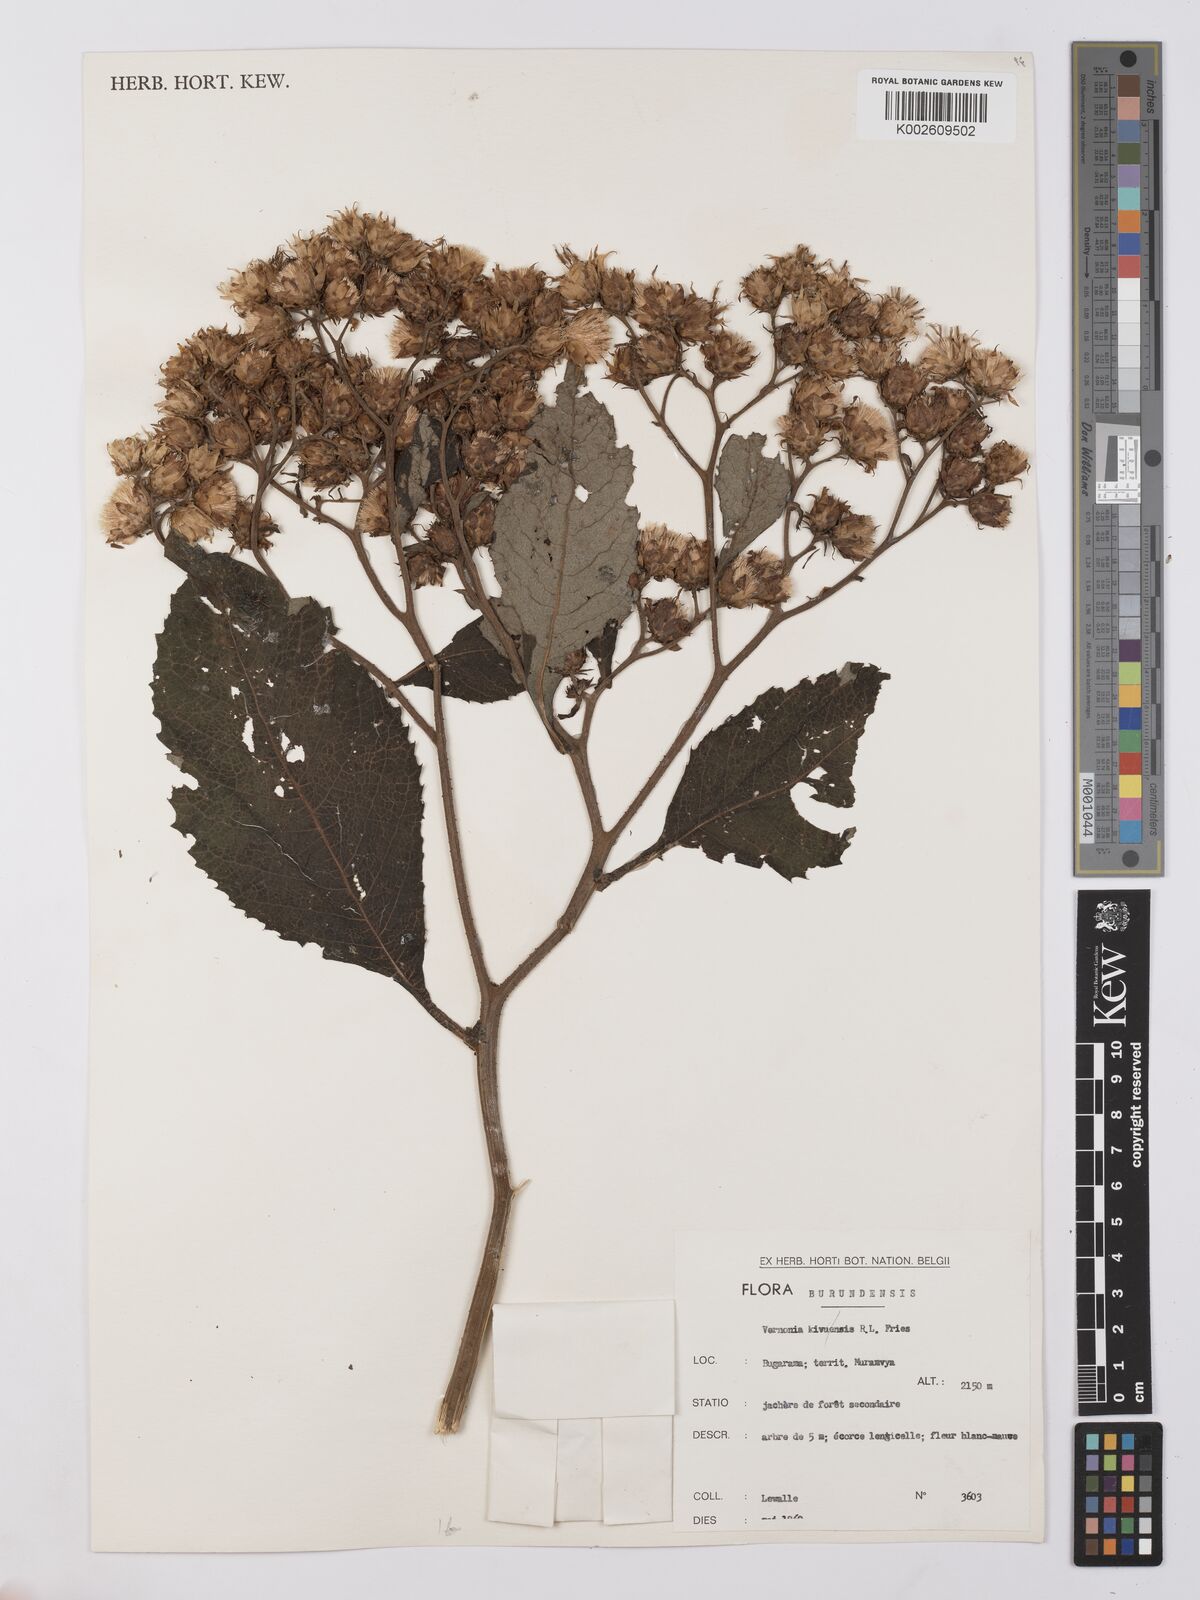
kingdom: Plantae
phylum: Tracheophyta
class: Magnoliopsida
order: Asterales
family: Asteraceae
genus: Vernonia
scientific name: Vernonia
